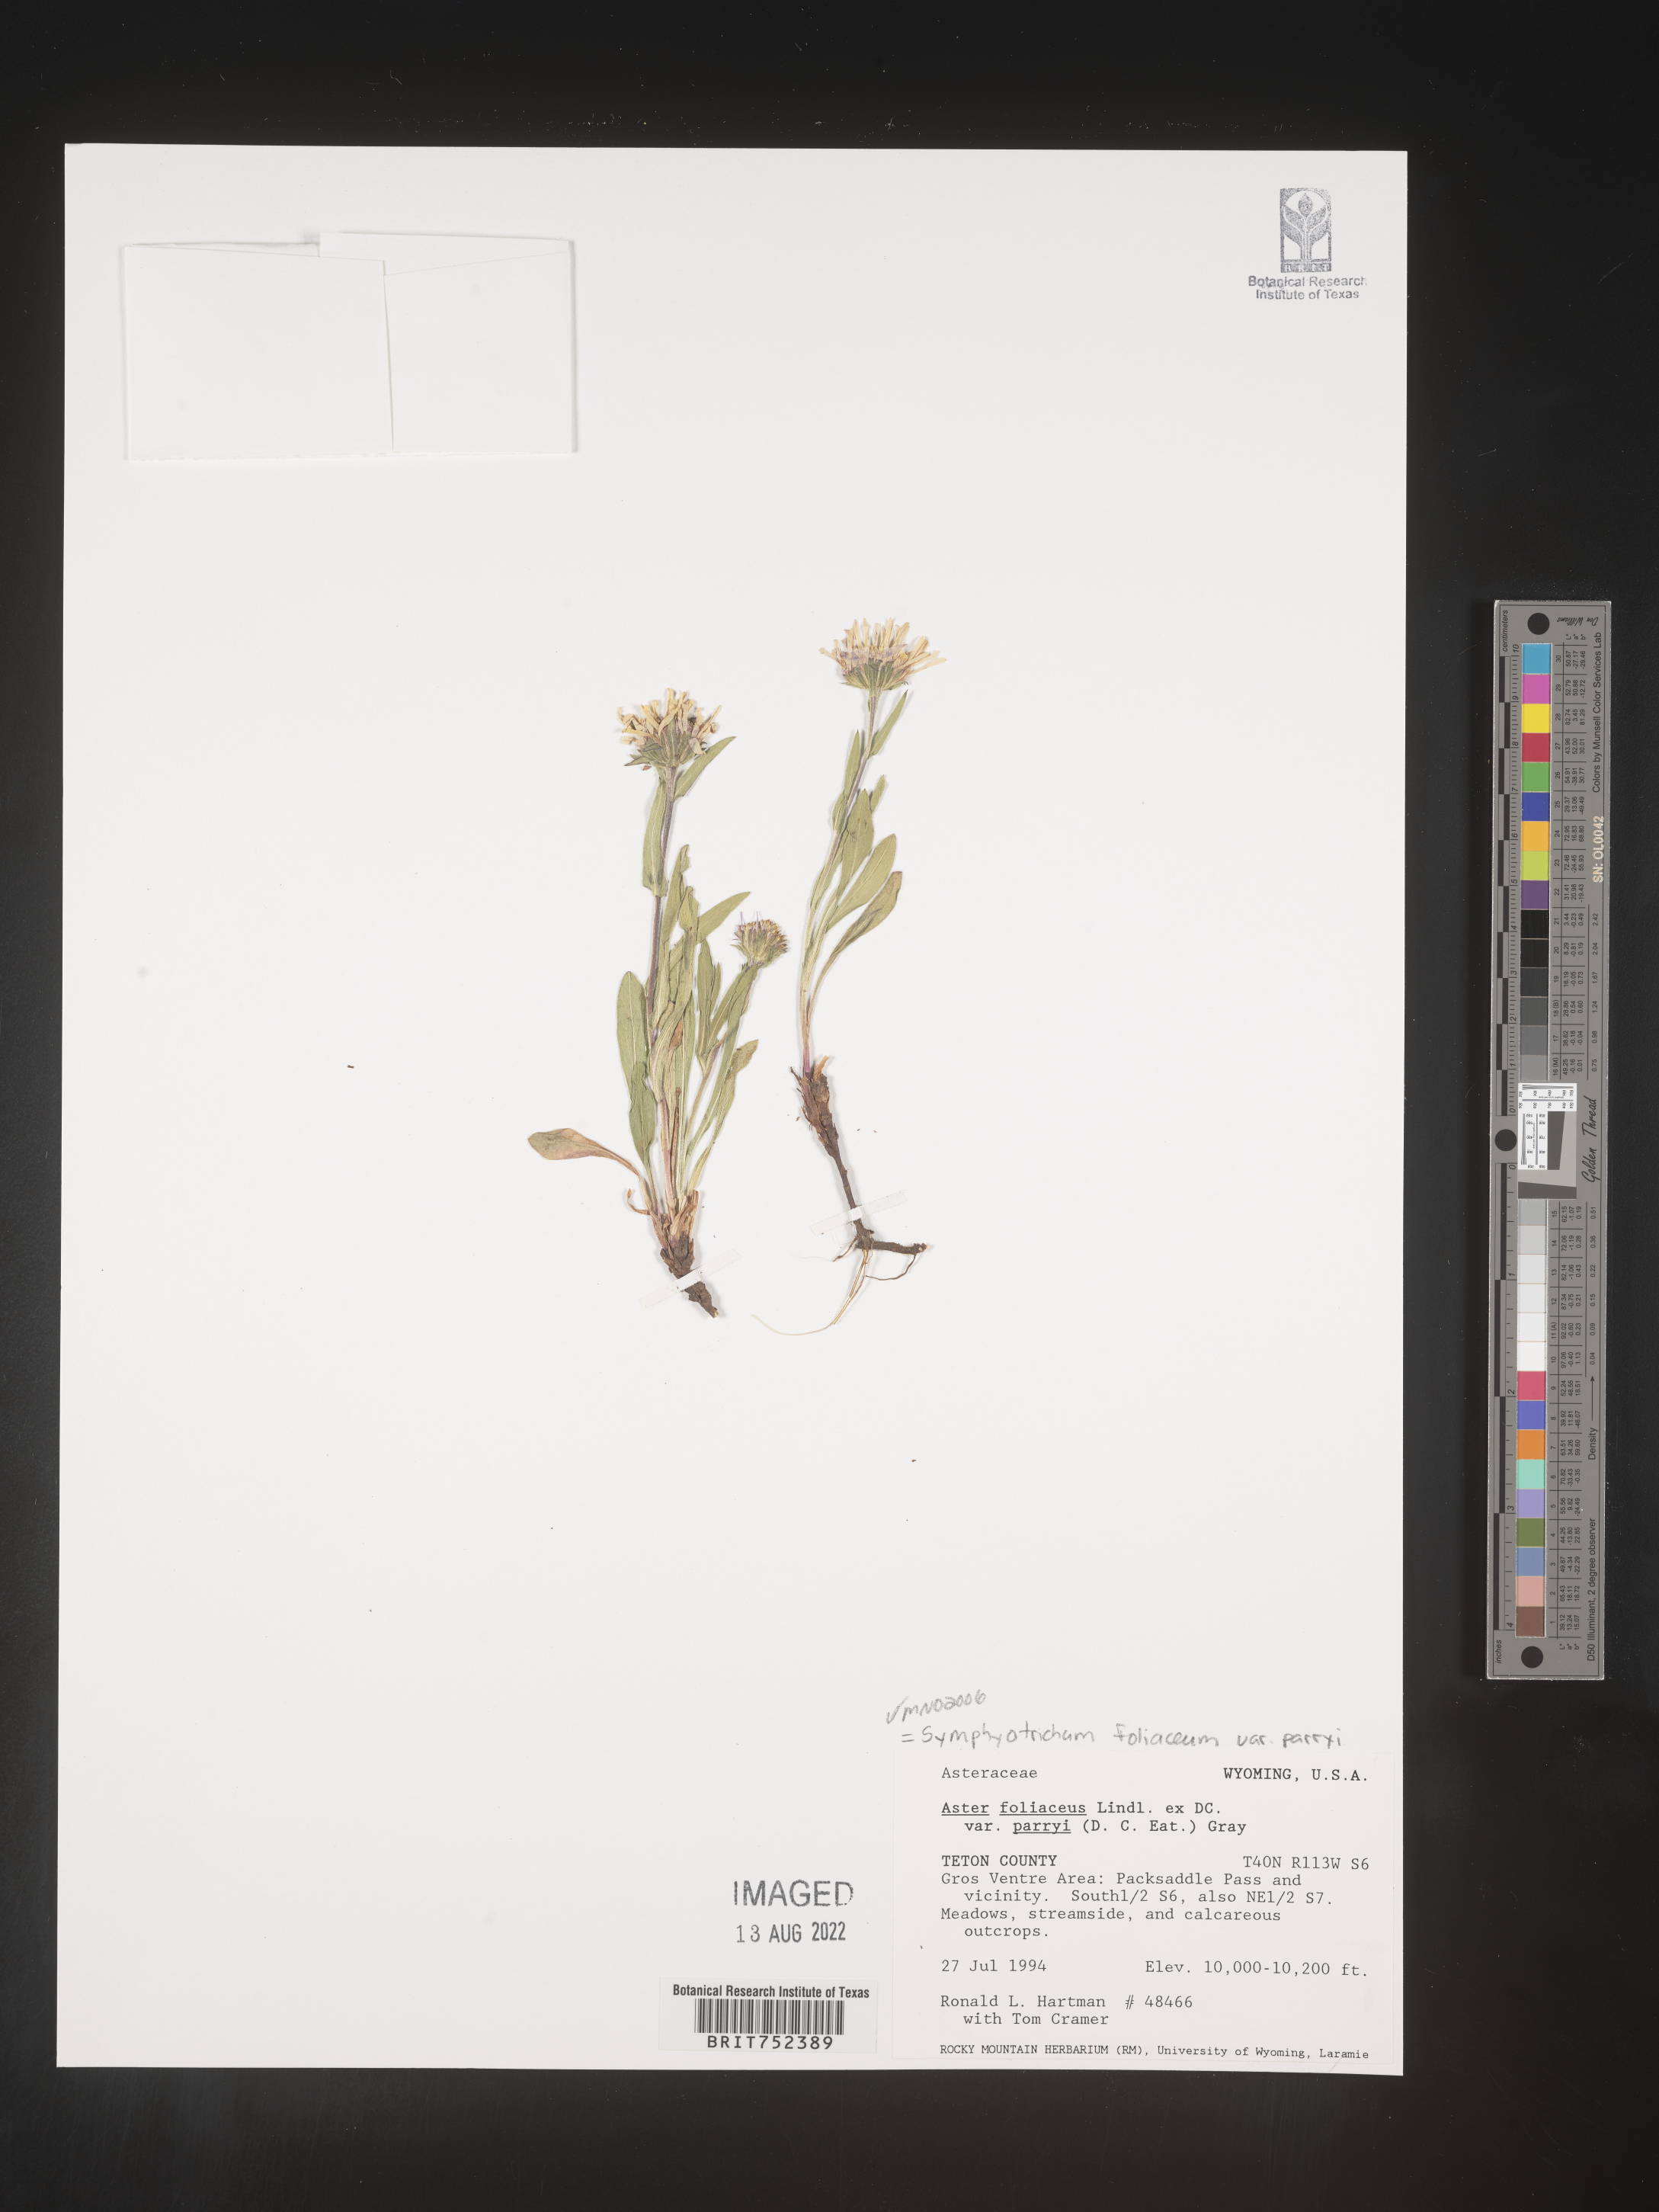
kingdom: Plantae
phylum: Tracheophyta
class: Magnoliopsida
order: Asterales
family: Asteraceae
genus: Symphyotrichum
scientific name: Symphyotrichum foliaceum
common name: Leafy aster
